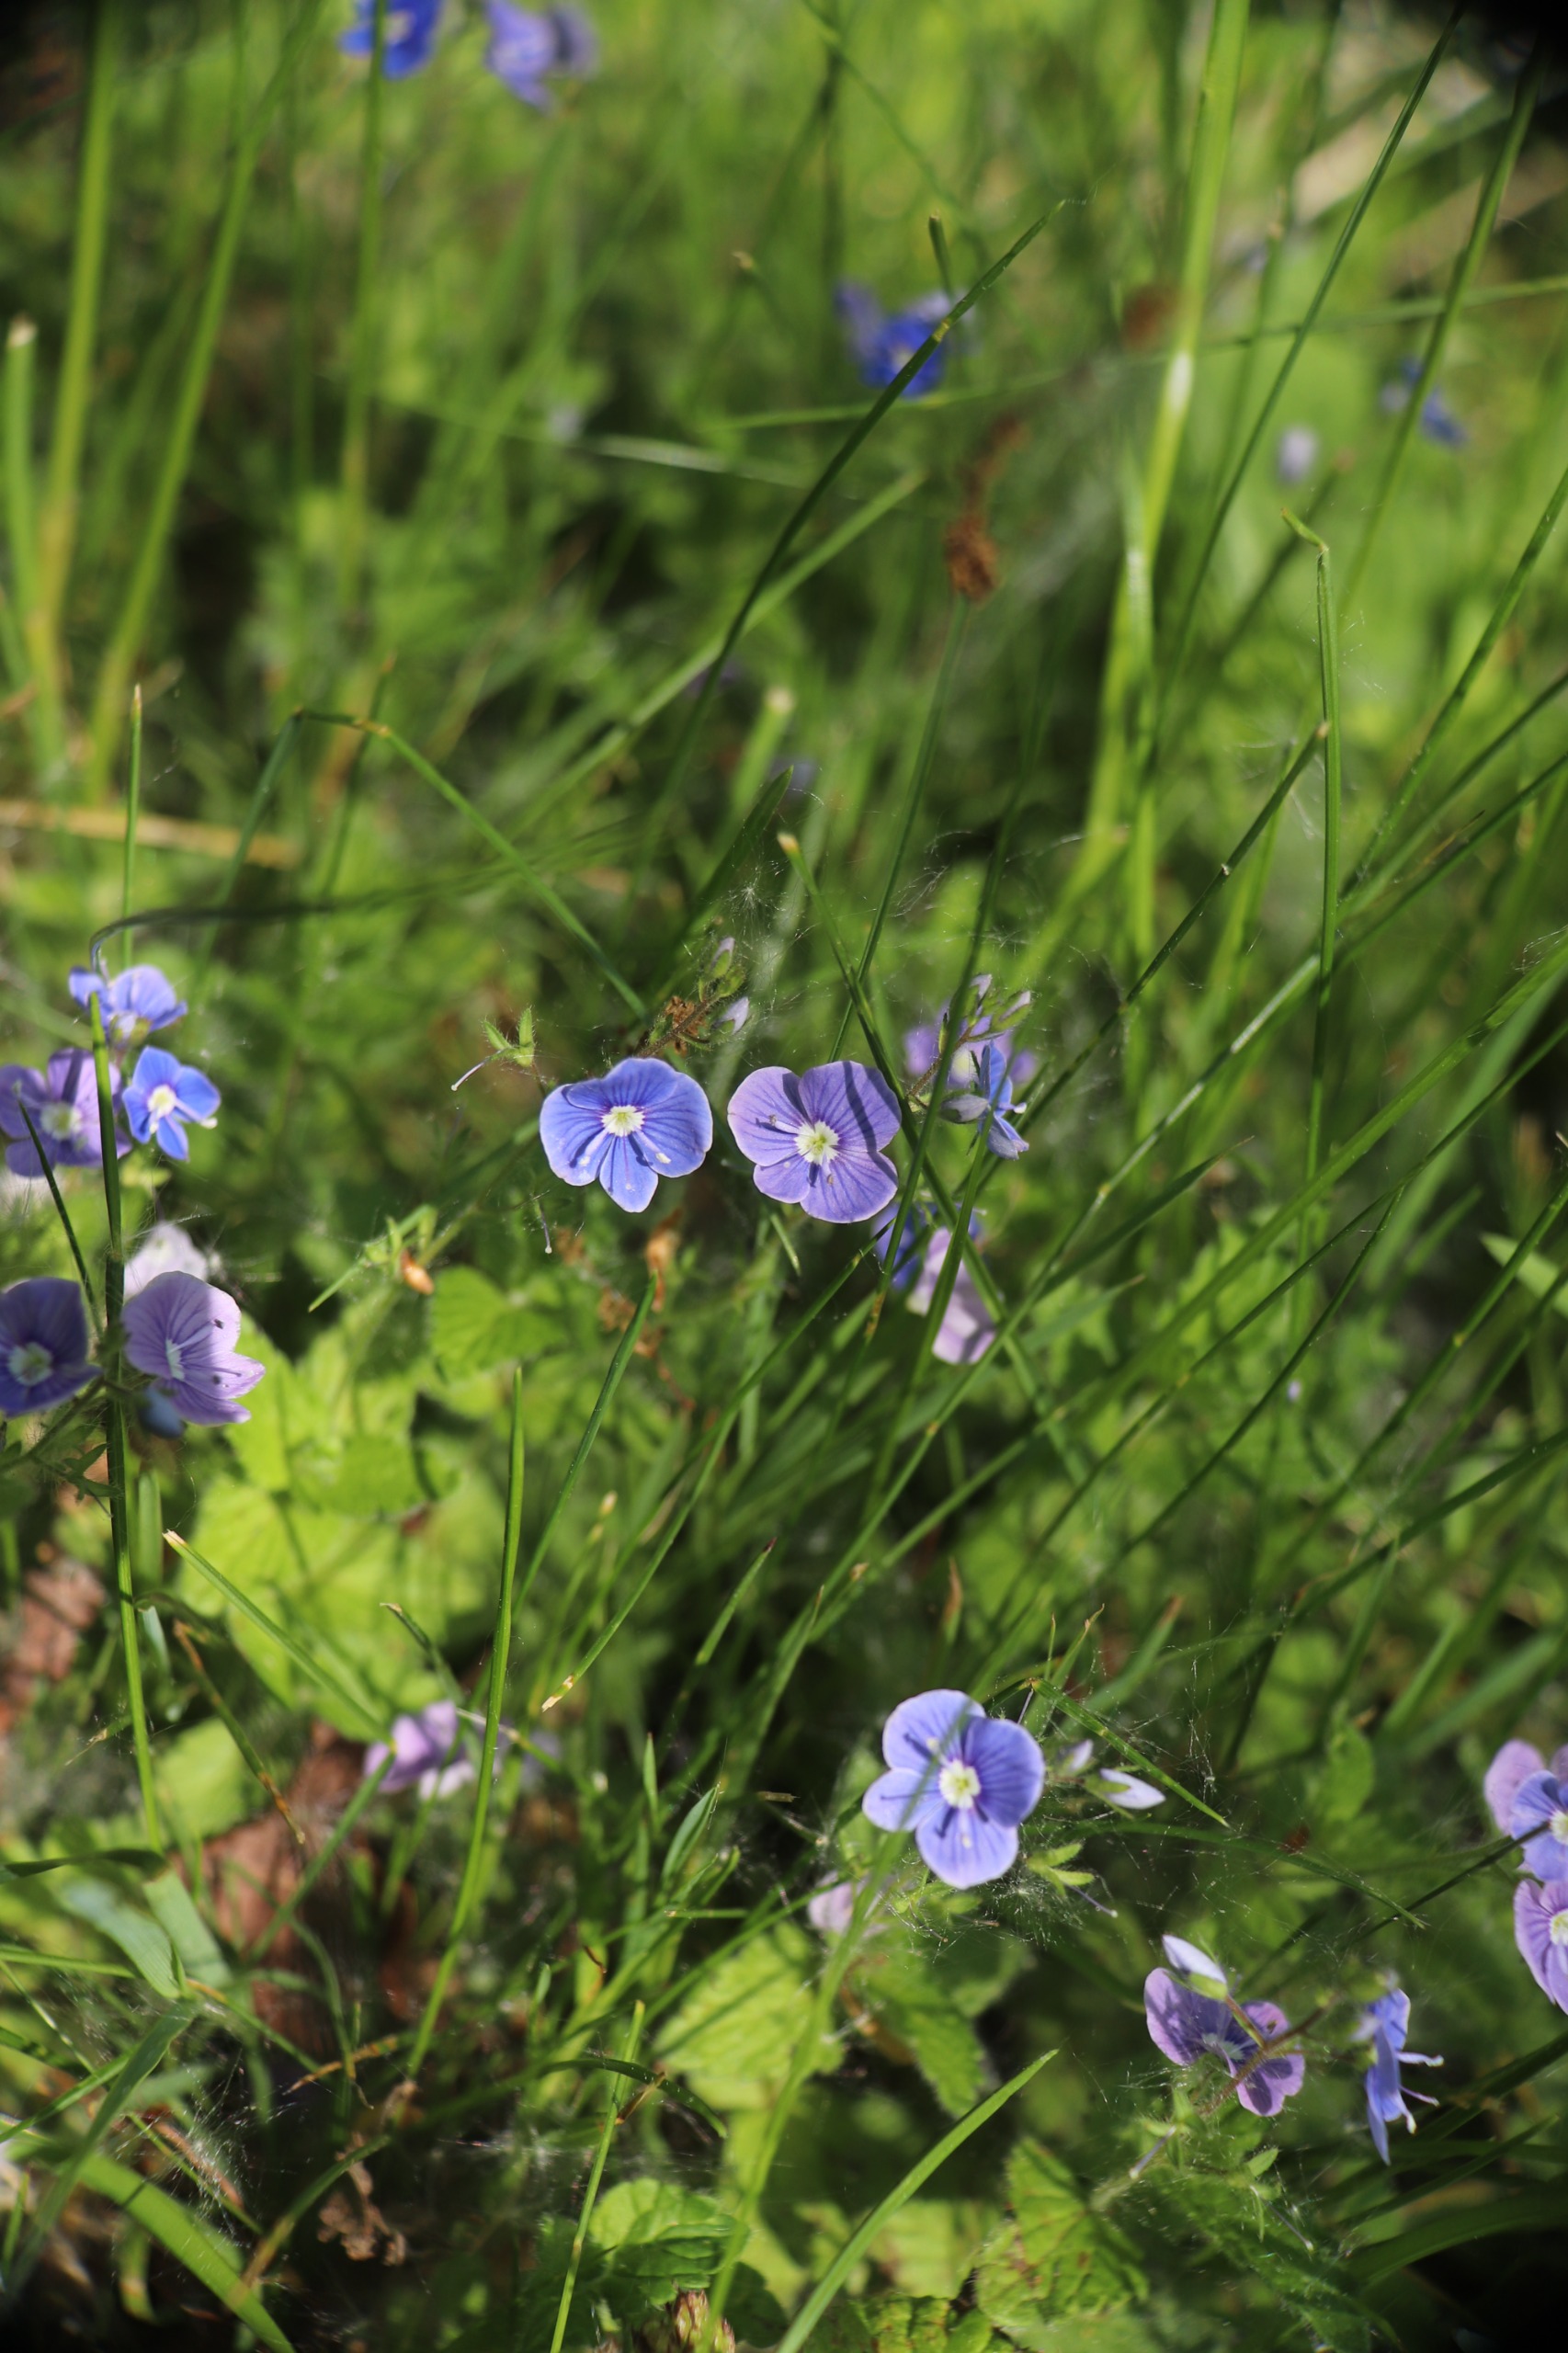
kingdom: Plantae
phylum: Tracheophyta
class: Magnoliopsida
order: Lamiales
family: Plantaginaceae
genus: Veronica
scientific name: Veronica chamaedrys
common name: Tveskægget ærenpris
